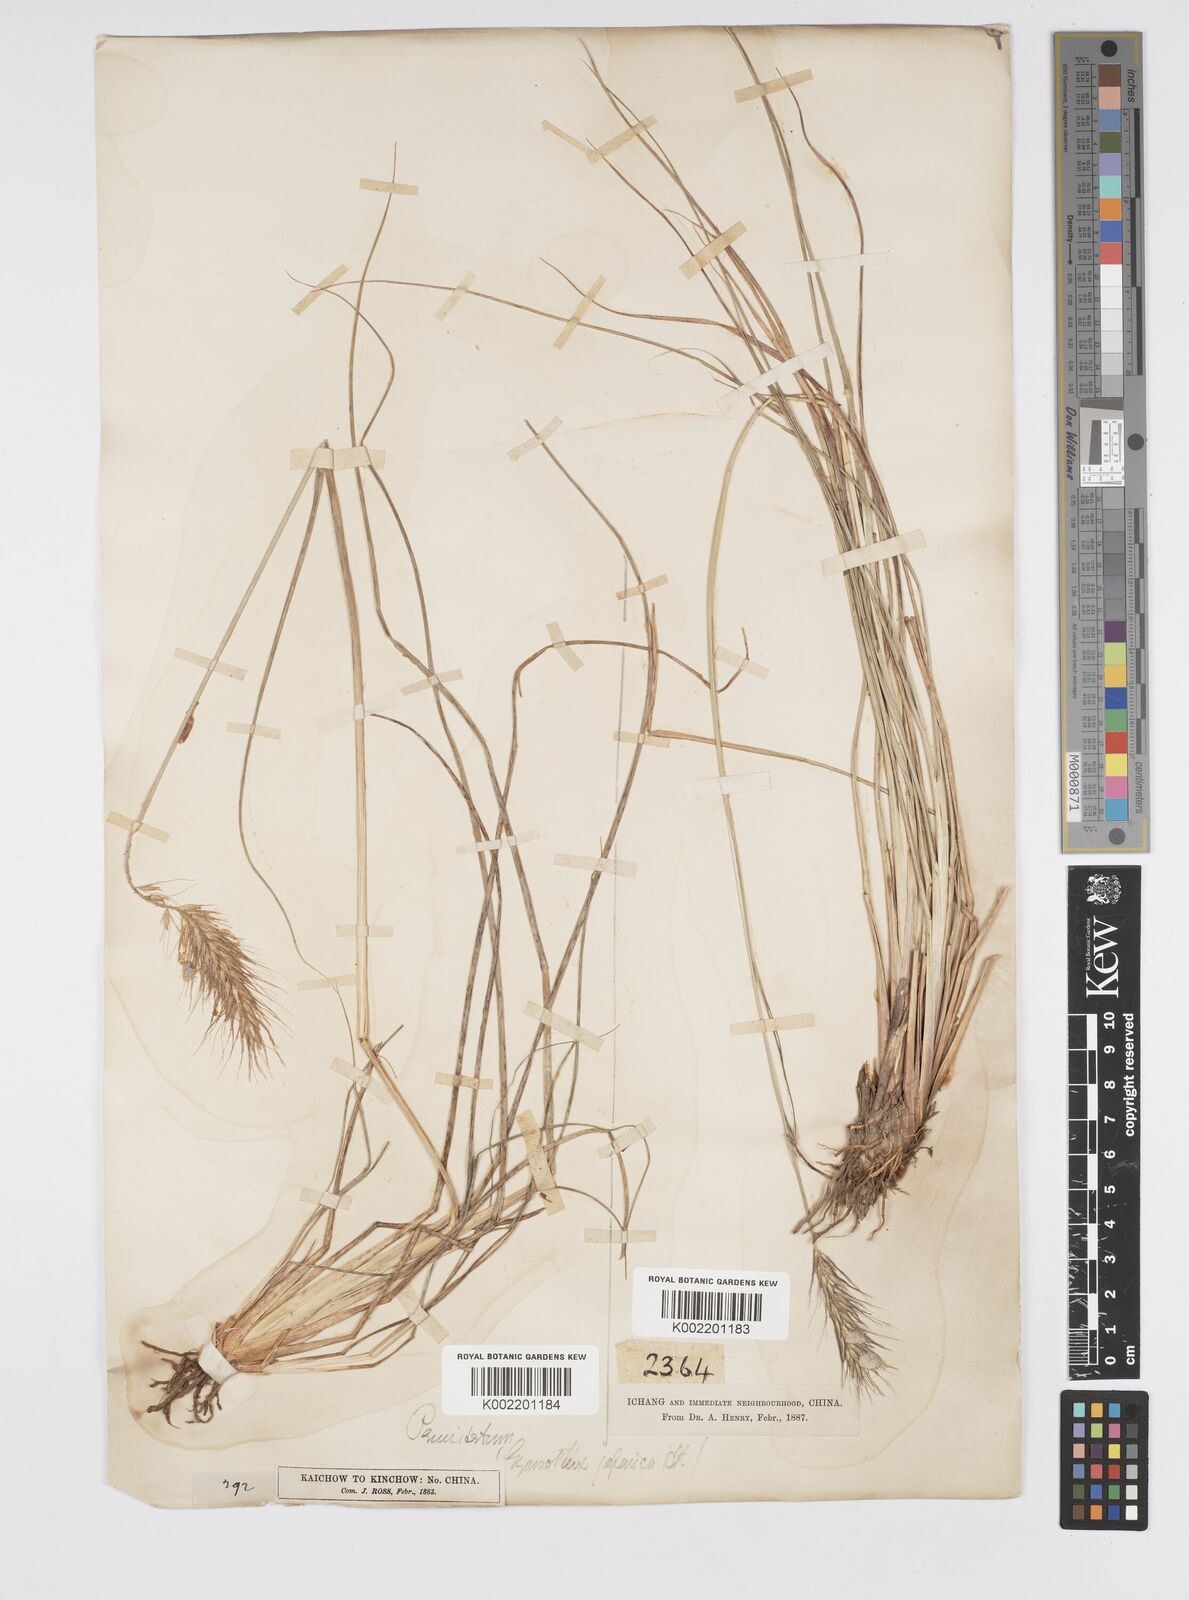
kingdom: Plantae
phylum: Tracheophyta
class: Liliopsida
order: Poales
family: Poaceae
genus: Cenchrus
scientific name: Cenchrus alopecuroides
